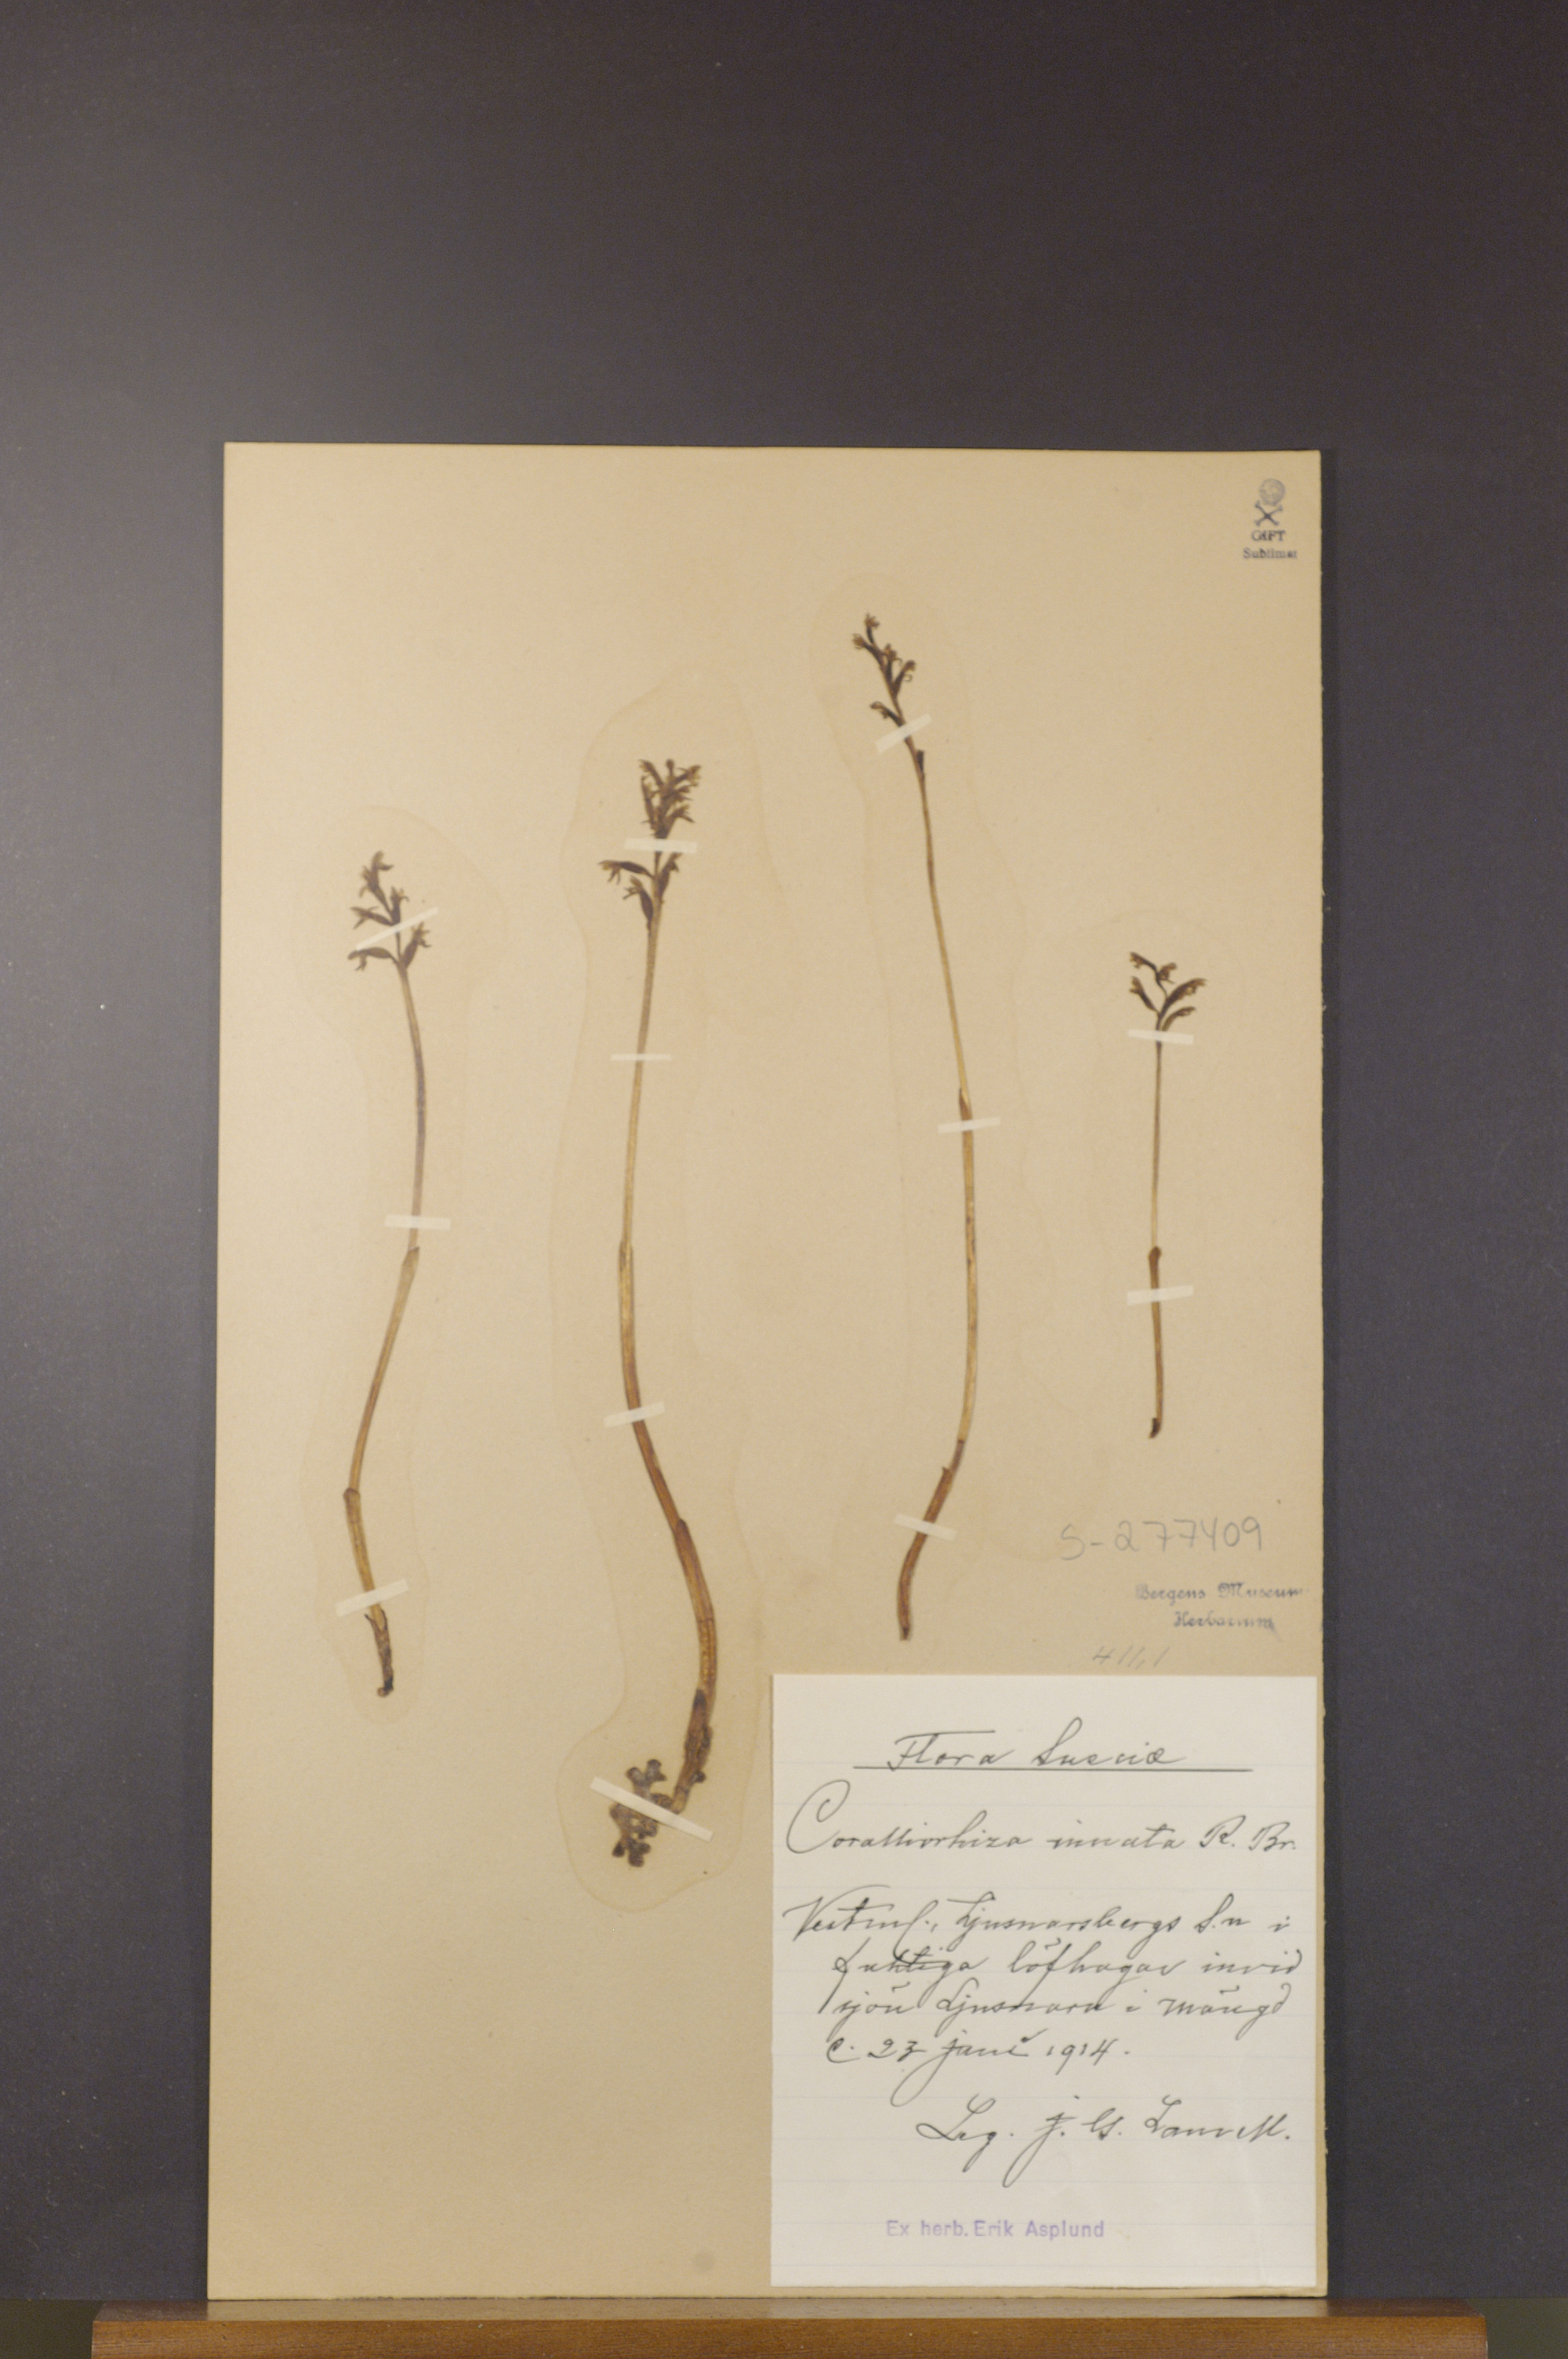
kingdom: Plantae
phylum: Tracheophyta
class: Liliopsida
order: Asparagales
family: Orchidaceae
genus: Corallorhiza
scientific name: Corallorhiza trifida
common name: Yellow coralroot
